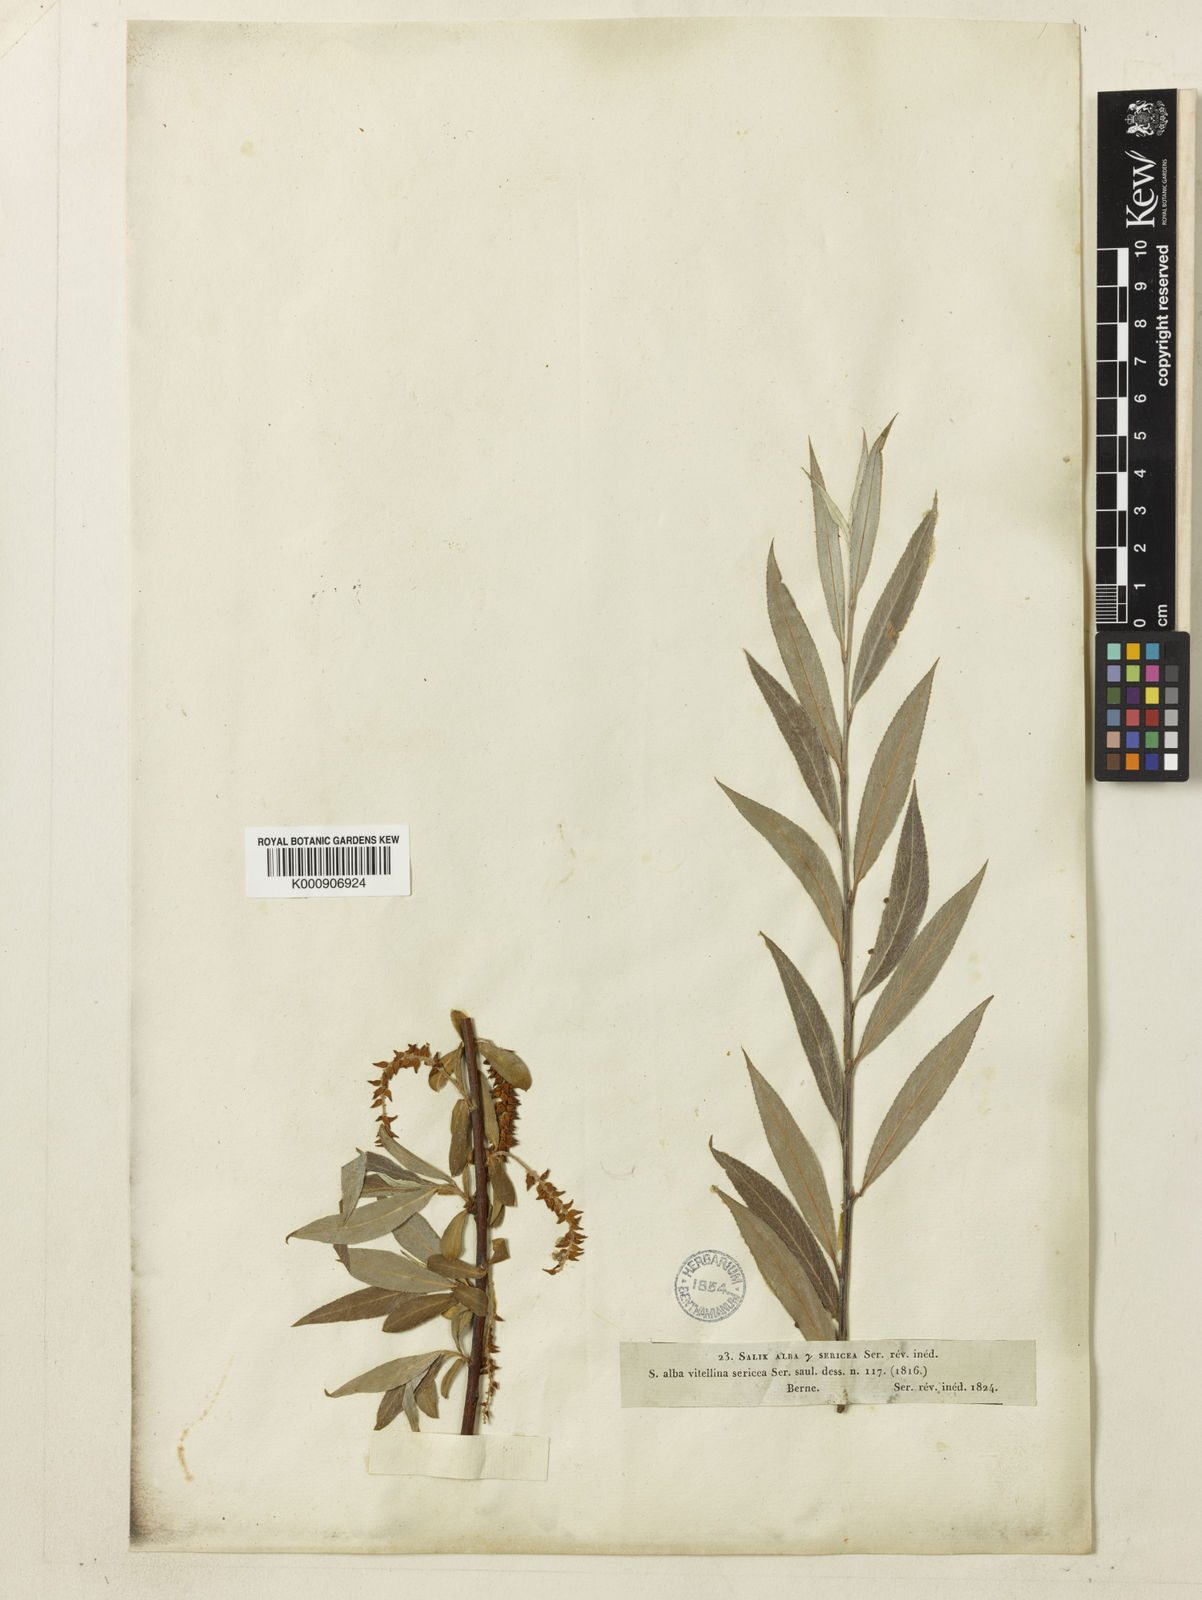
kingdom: Plantae
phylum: Tracheophyta
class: Magnoliopsida
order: Malpighiales
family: Salicaceae
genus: Salix
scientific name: Salix alba
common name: White willow
